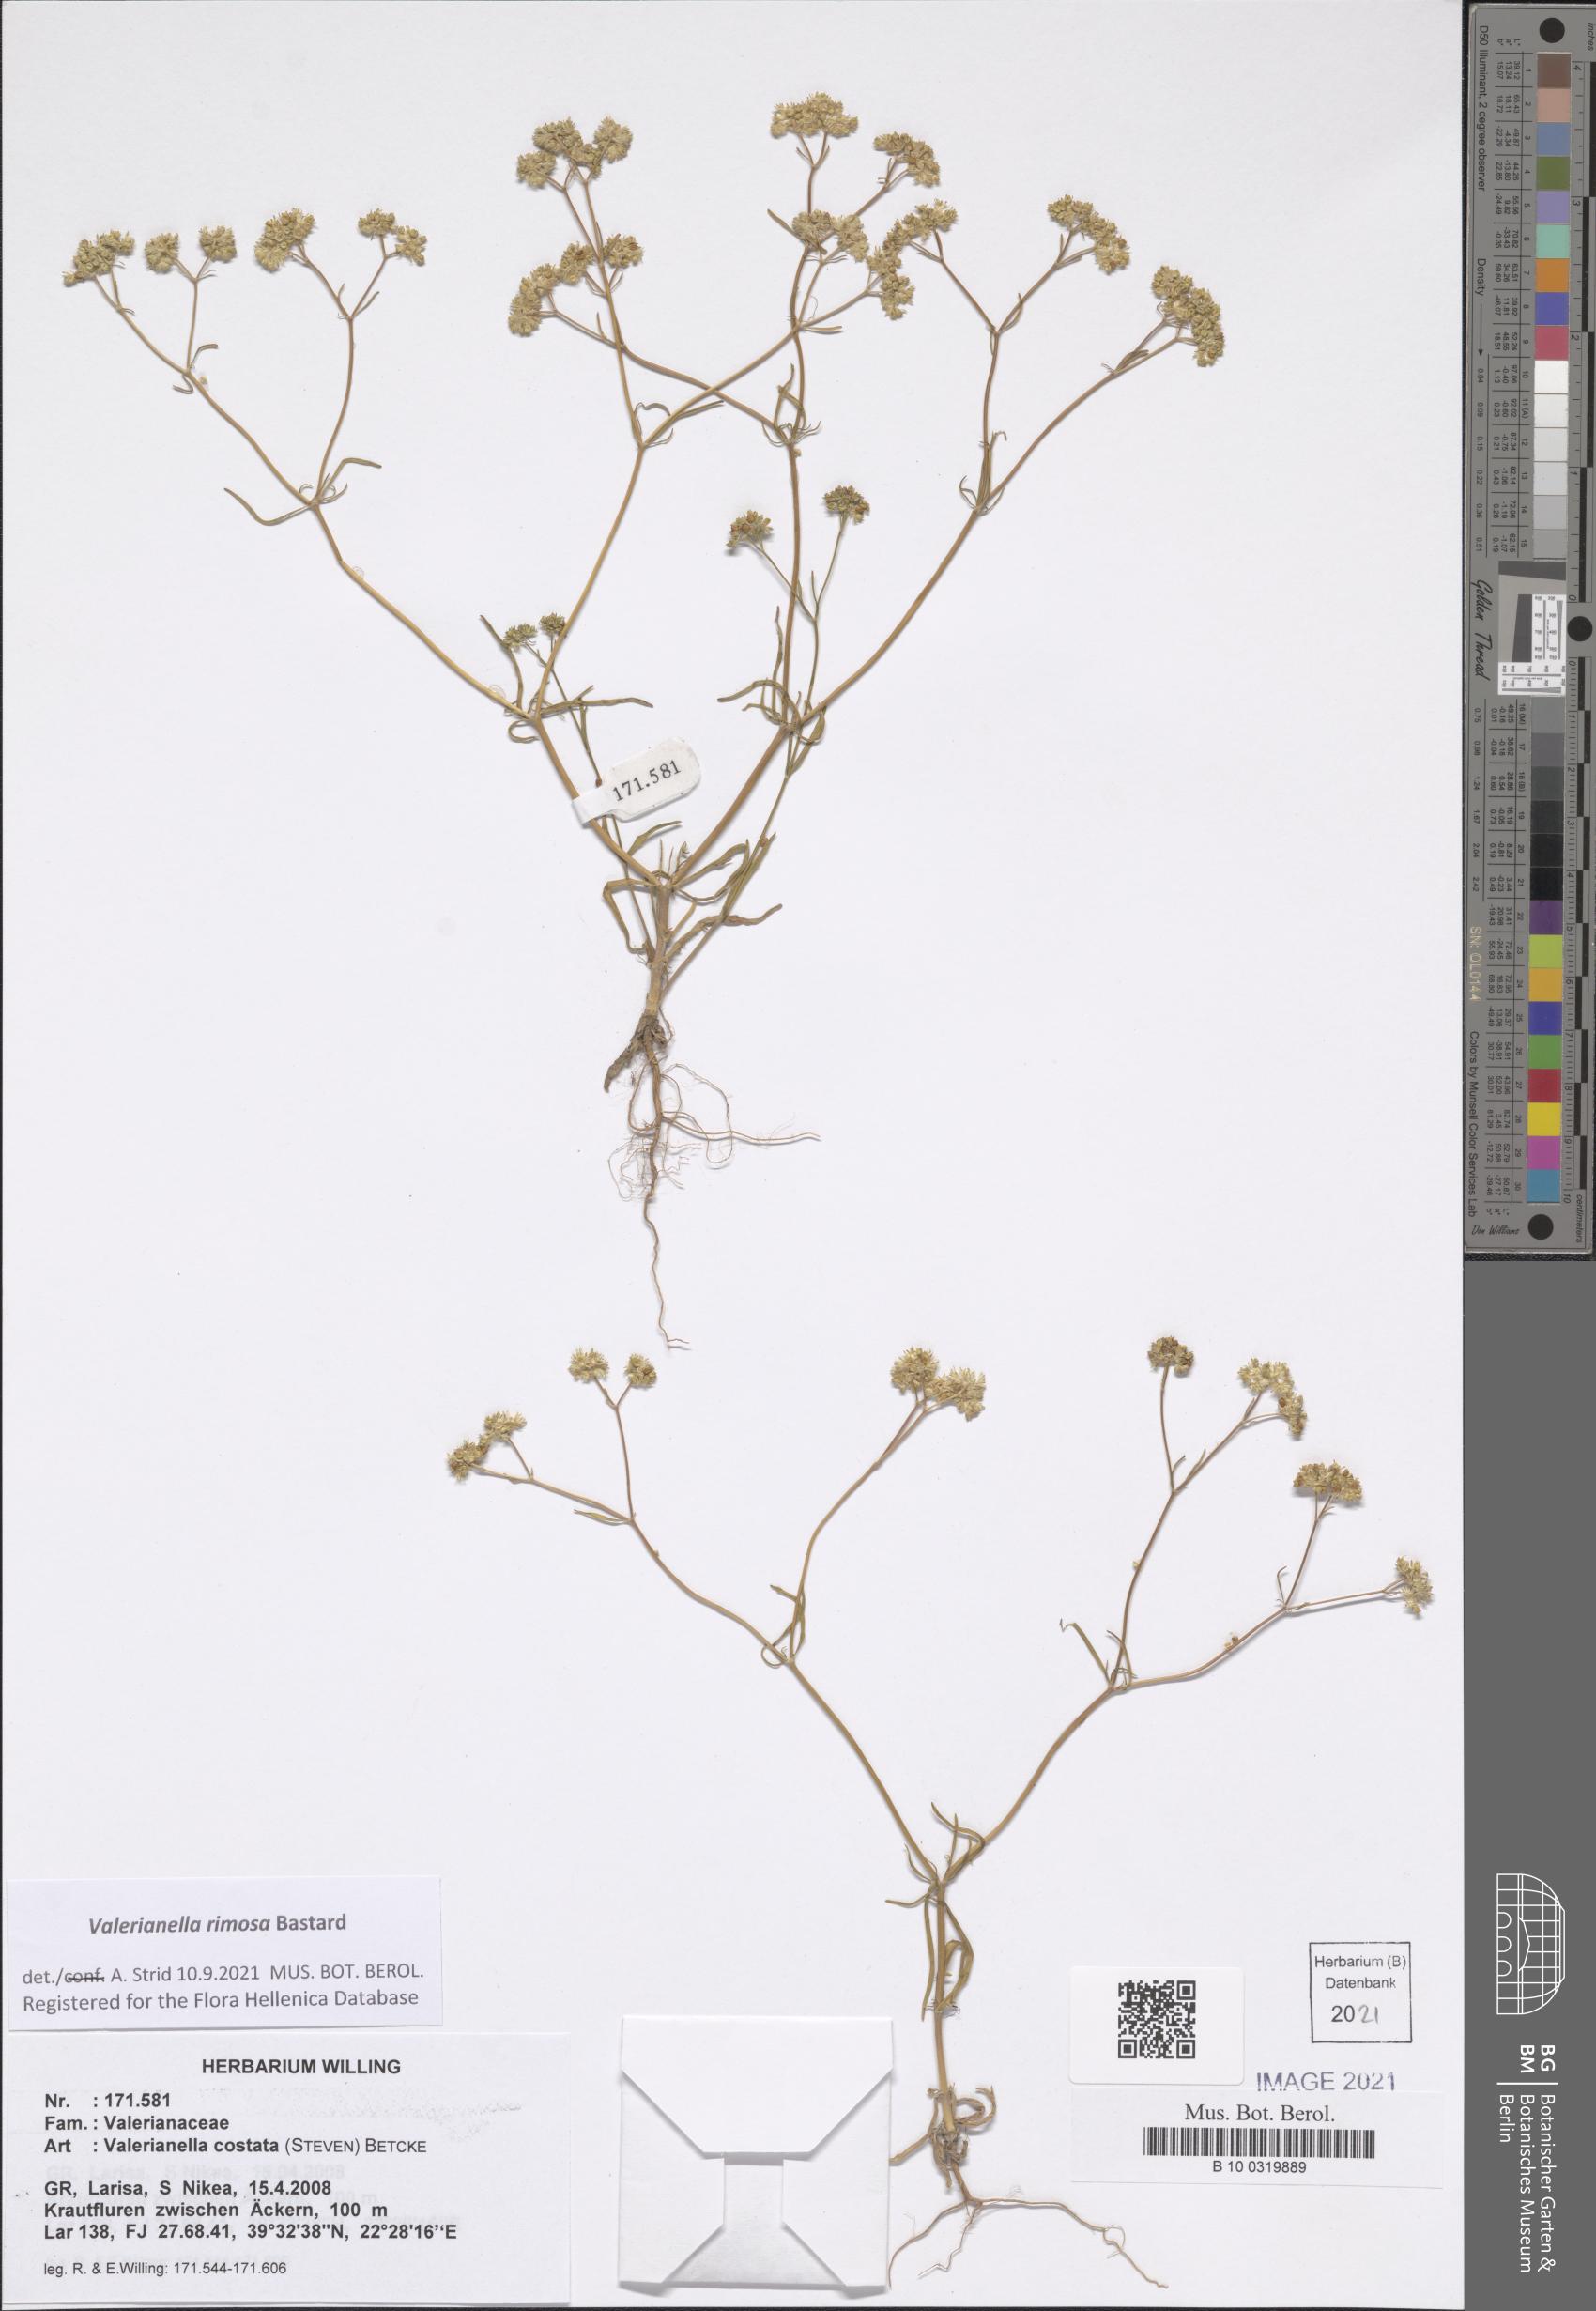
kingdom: Plantae
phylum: Tracheophyta
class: Magnoliopsida
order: Dipsacales
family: Caprifoliaceae
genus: Valerianella
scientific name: Valerianella rimosa
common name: Broad-fruited cornsalad
